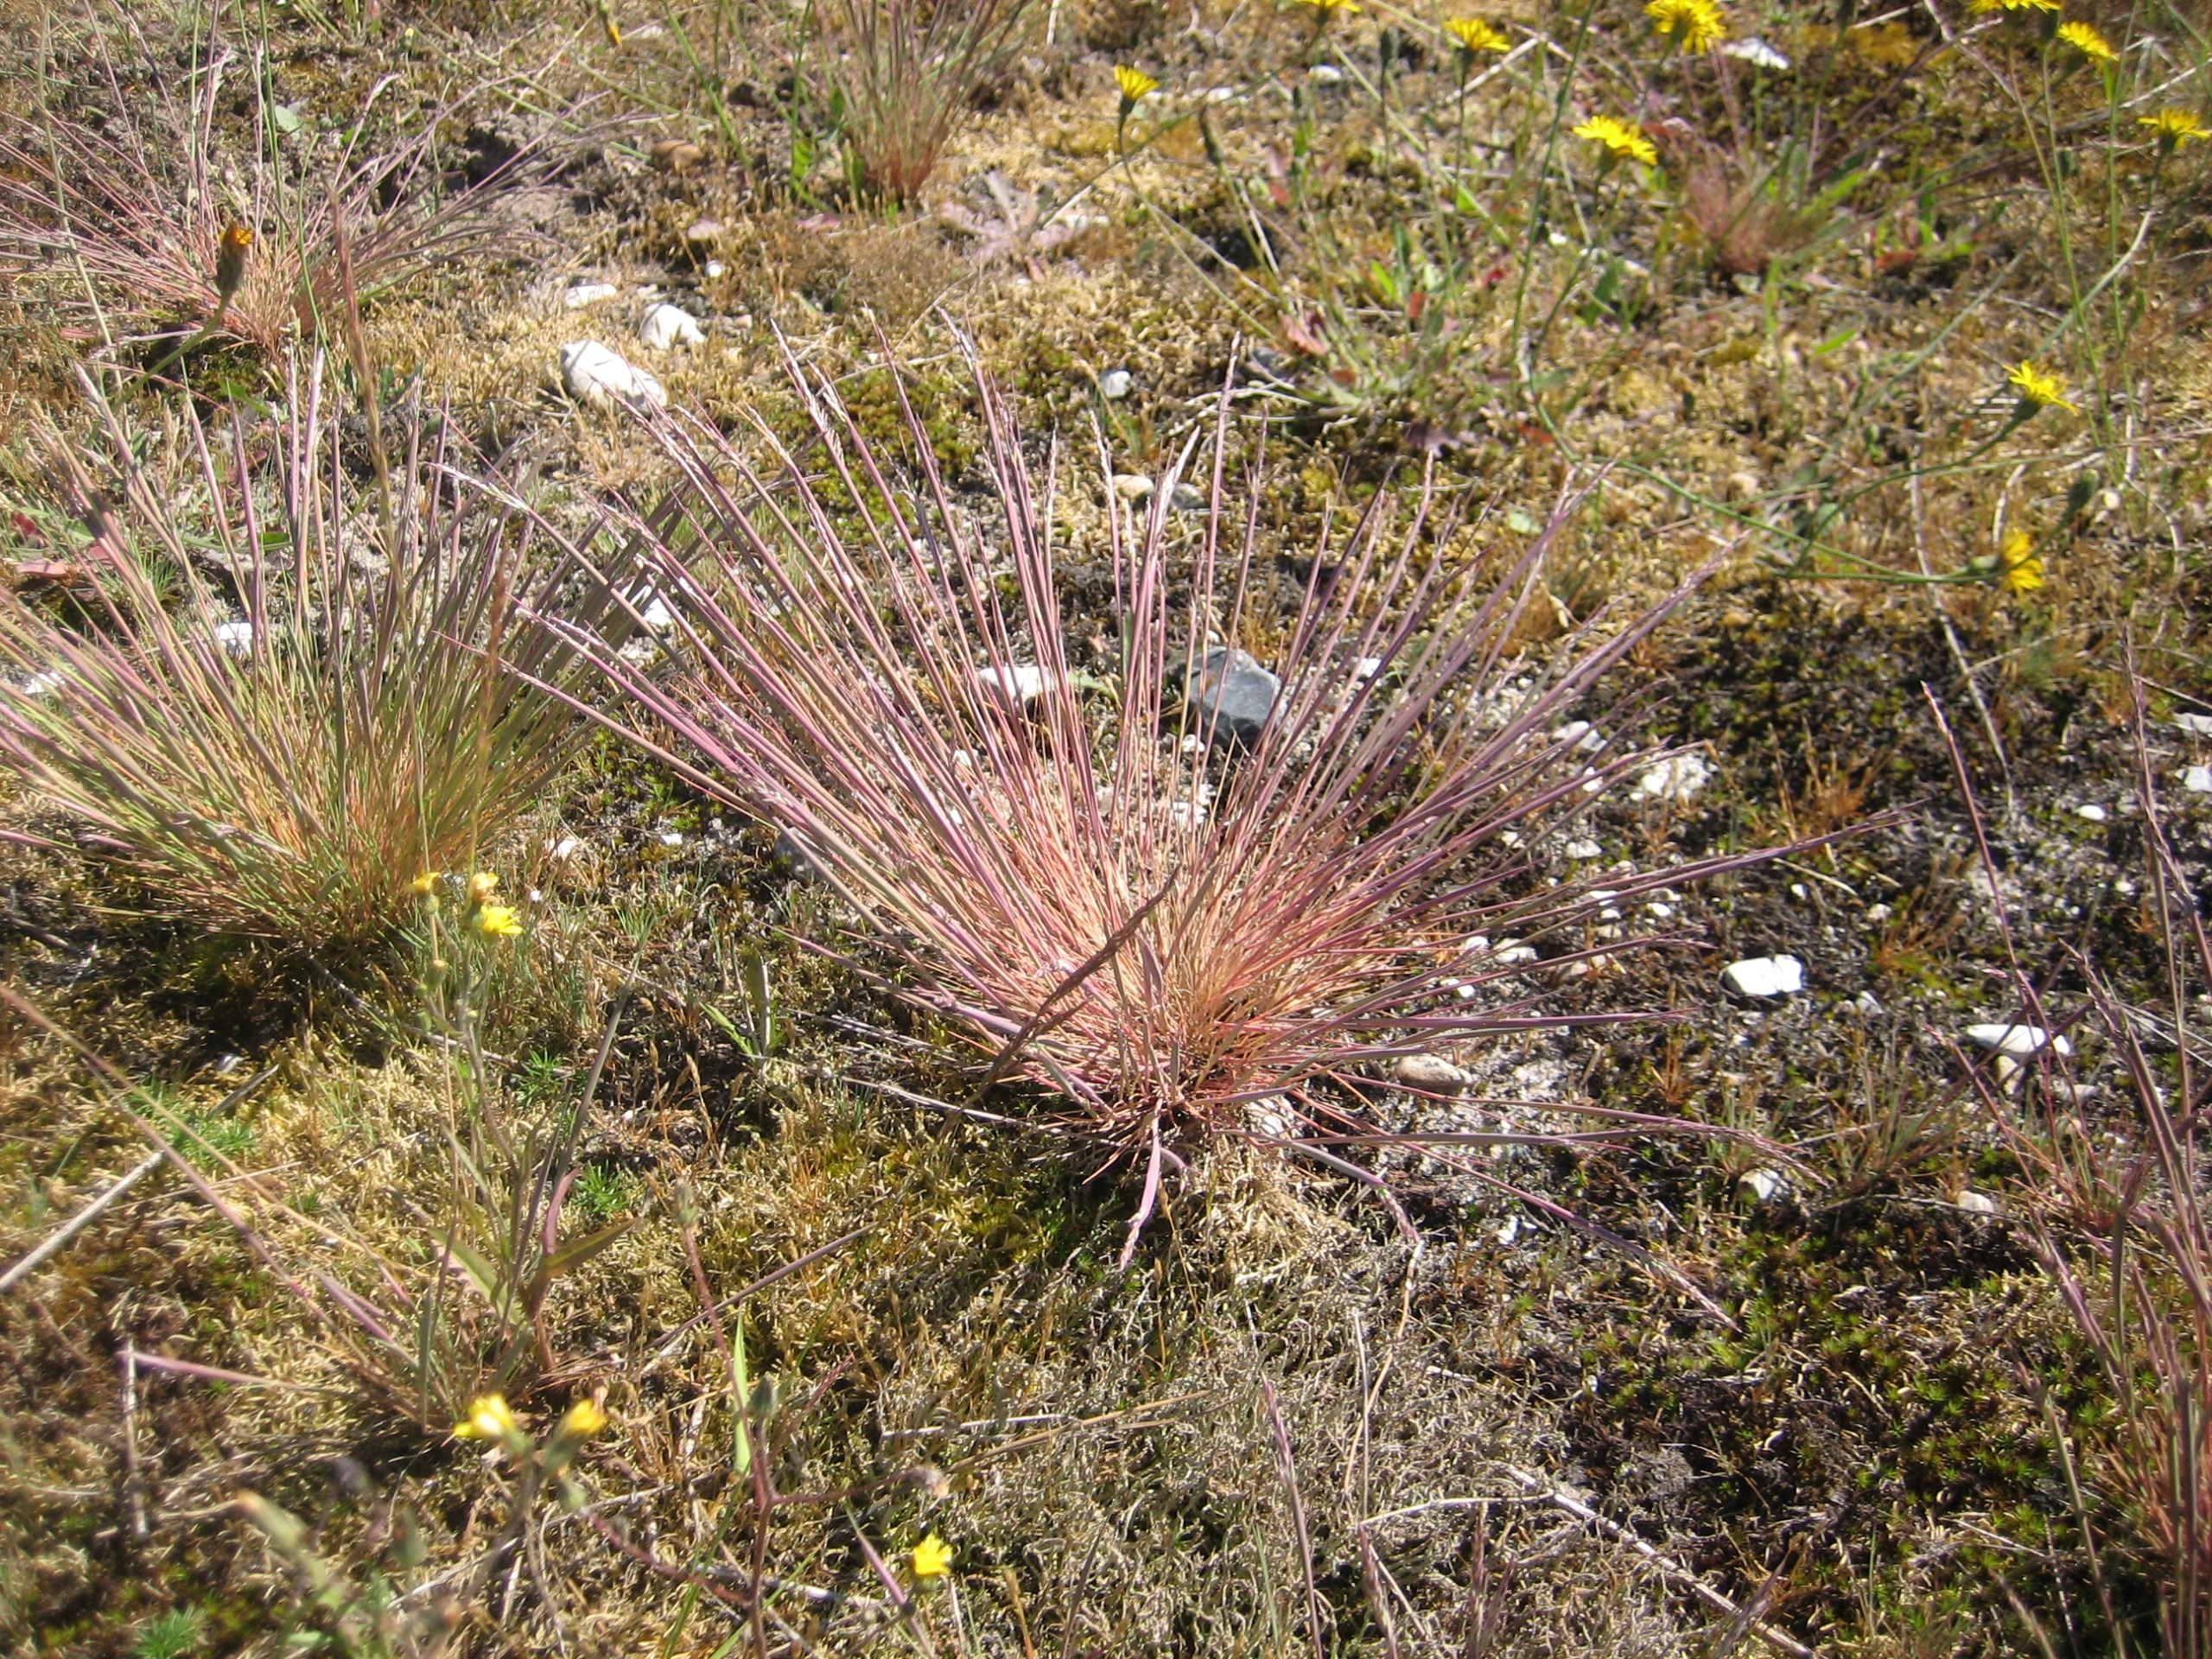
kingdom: Plantae
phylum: Tracheophyta
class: Liliopsida
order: Poales
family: Poaceae
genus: Corynephorus
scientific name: Corynephorus canescens
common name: Sandskæg
